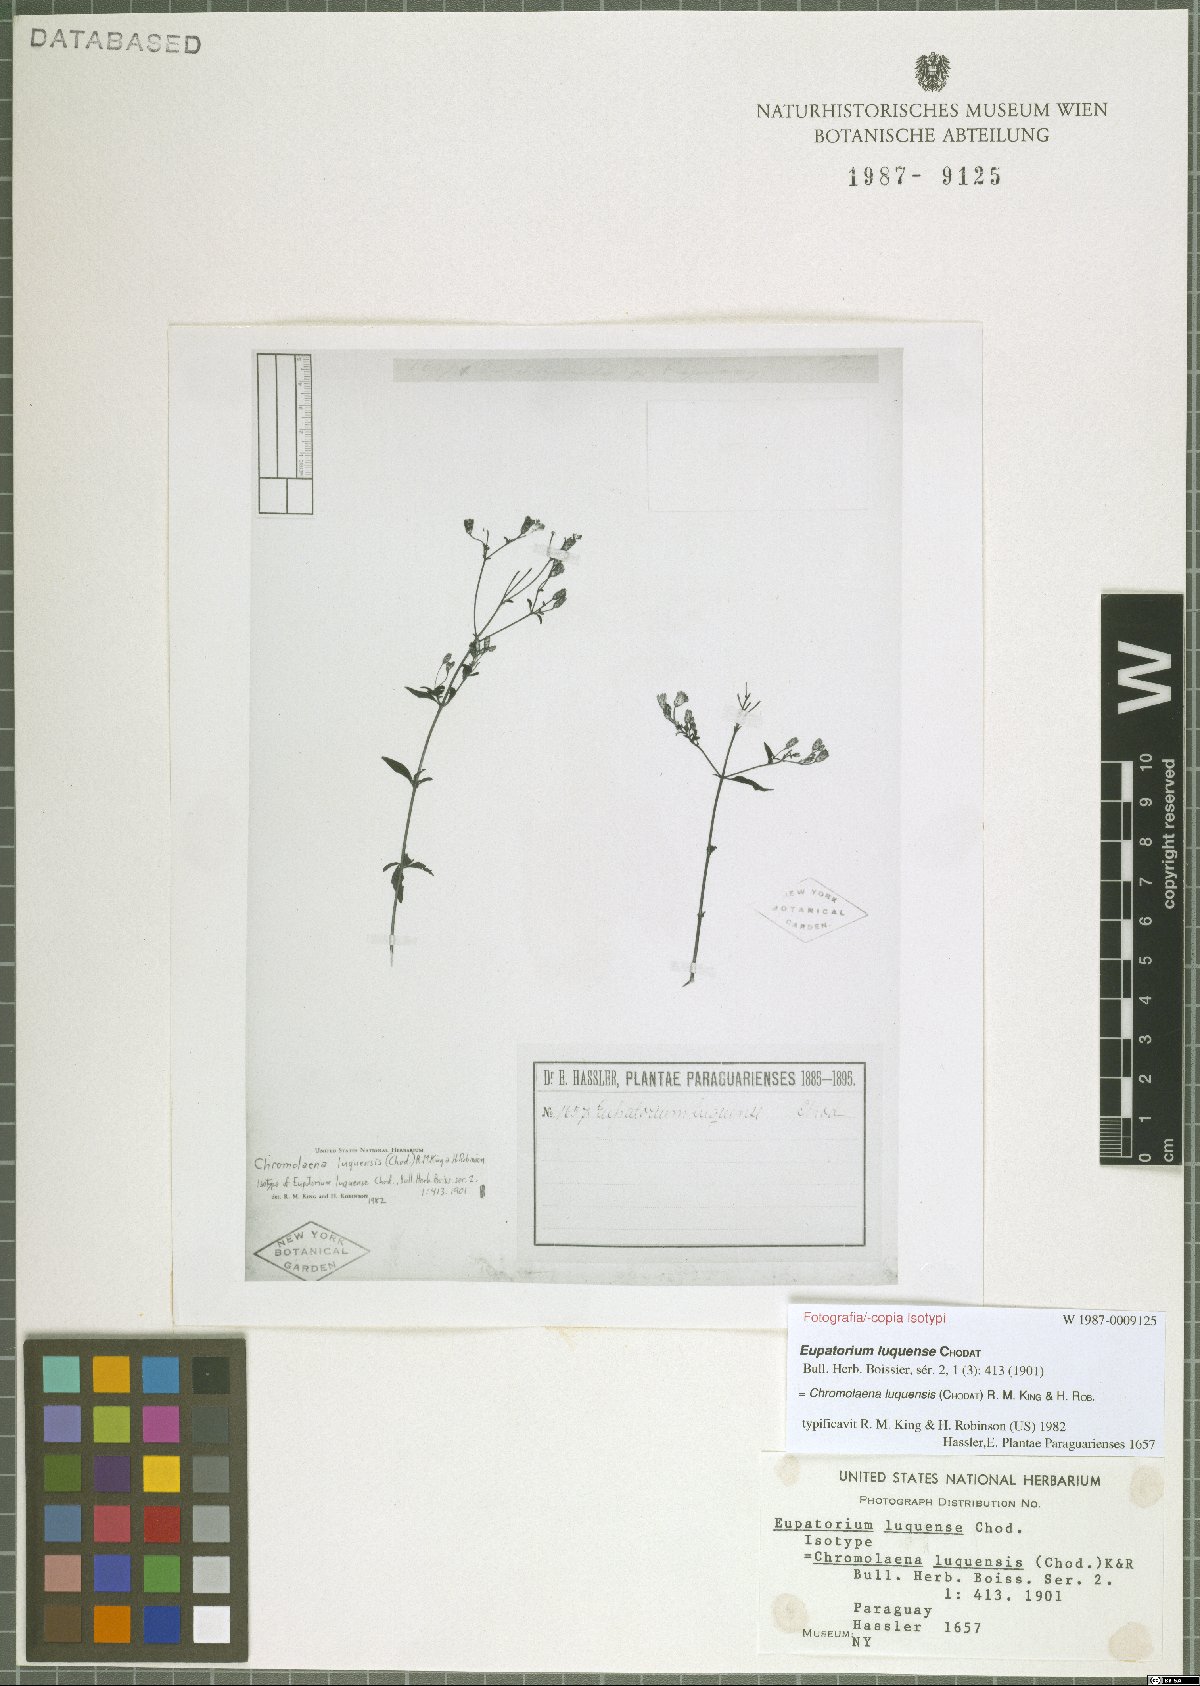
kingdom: Plantae
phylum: Tracheophyta
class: Magnoliopsida
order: Asterales
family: Asteraceae
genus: Chromolaena
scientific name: Chromolaena ivifolia
